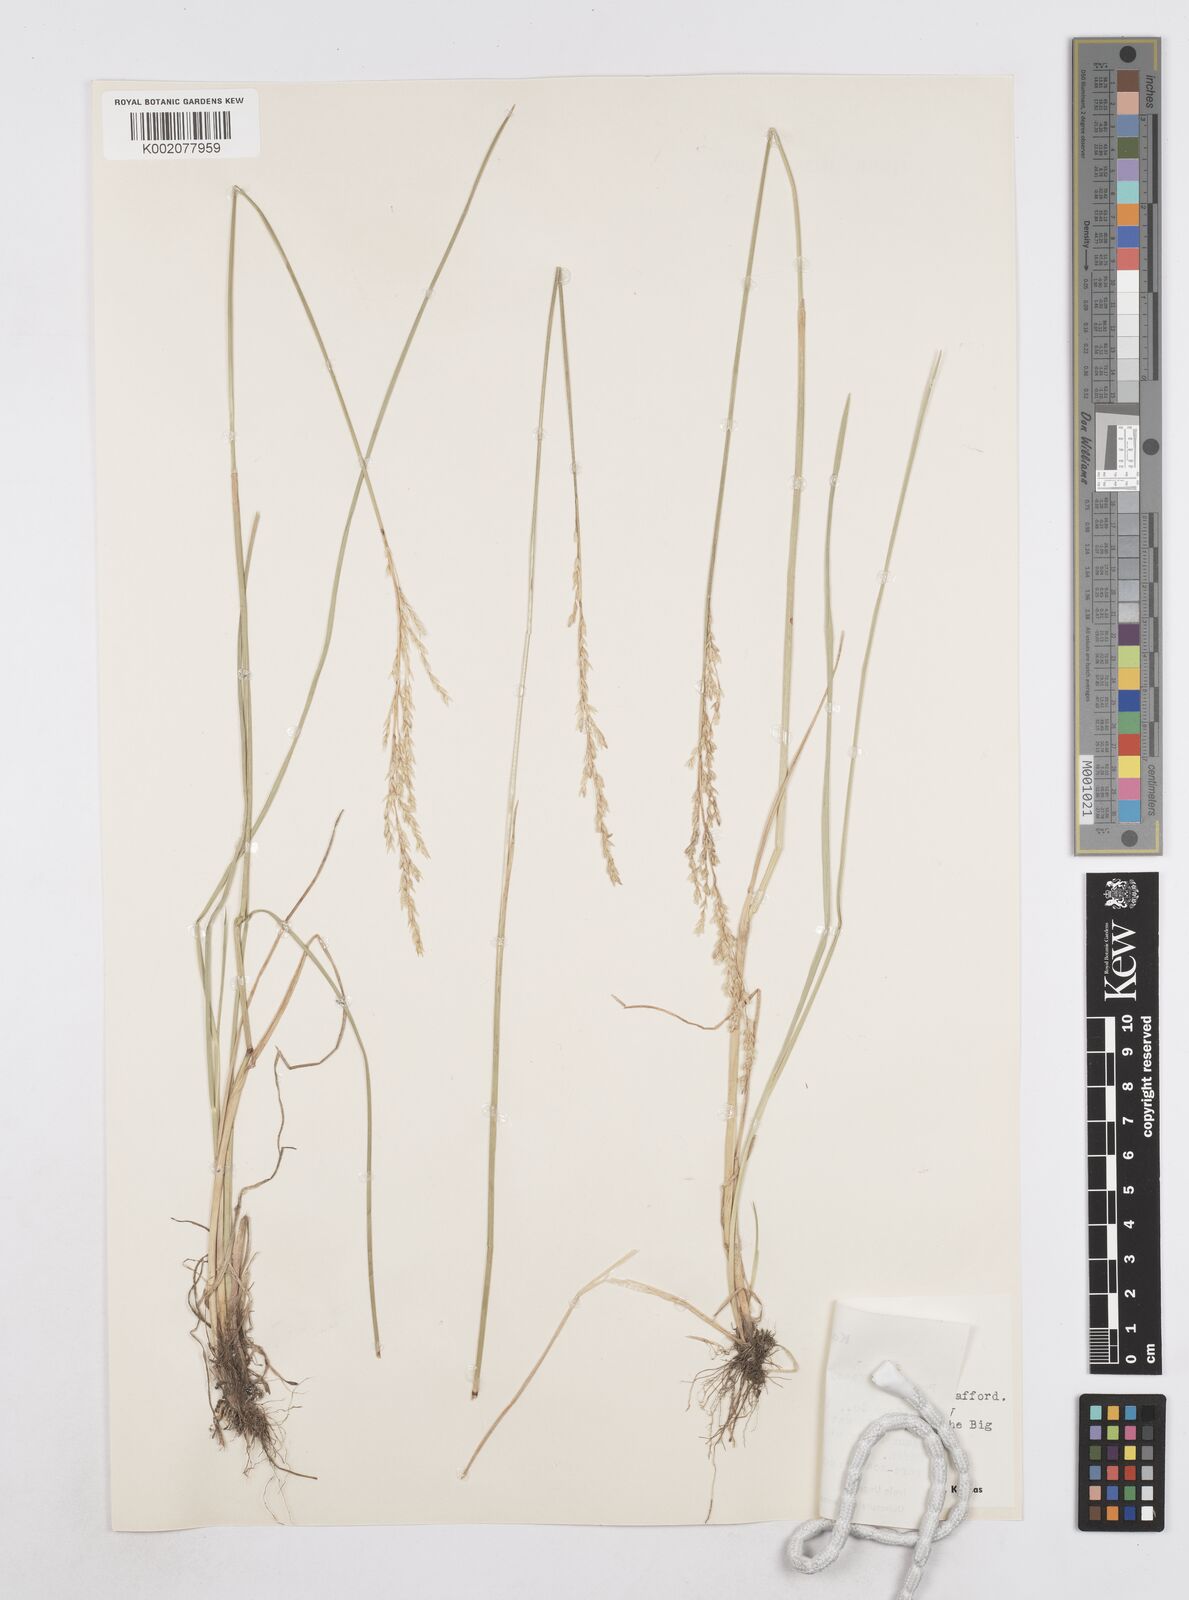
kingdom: Plantae
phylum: Tracheophyta
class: Liliopsida
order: Poales
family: Poaceae
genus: Poa
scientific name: Poa arida
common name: Plains bluegrass
